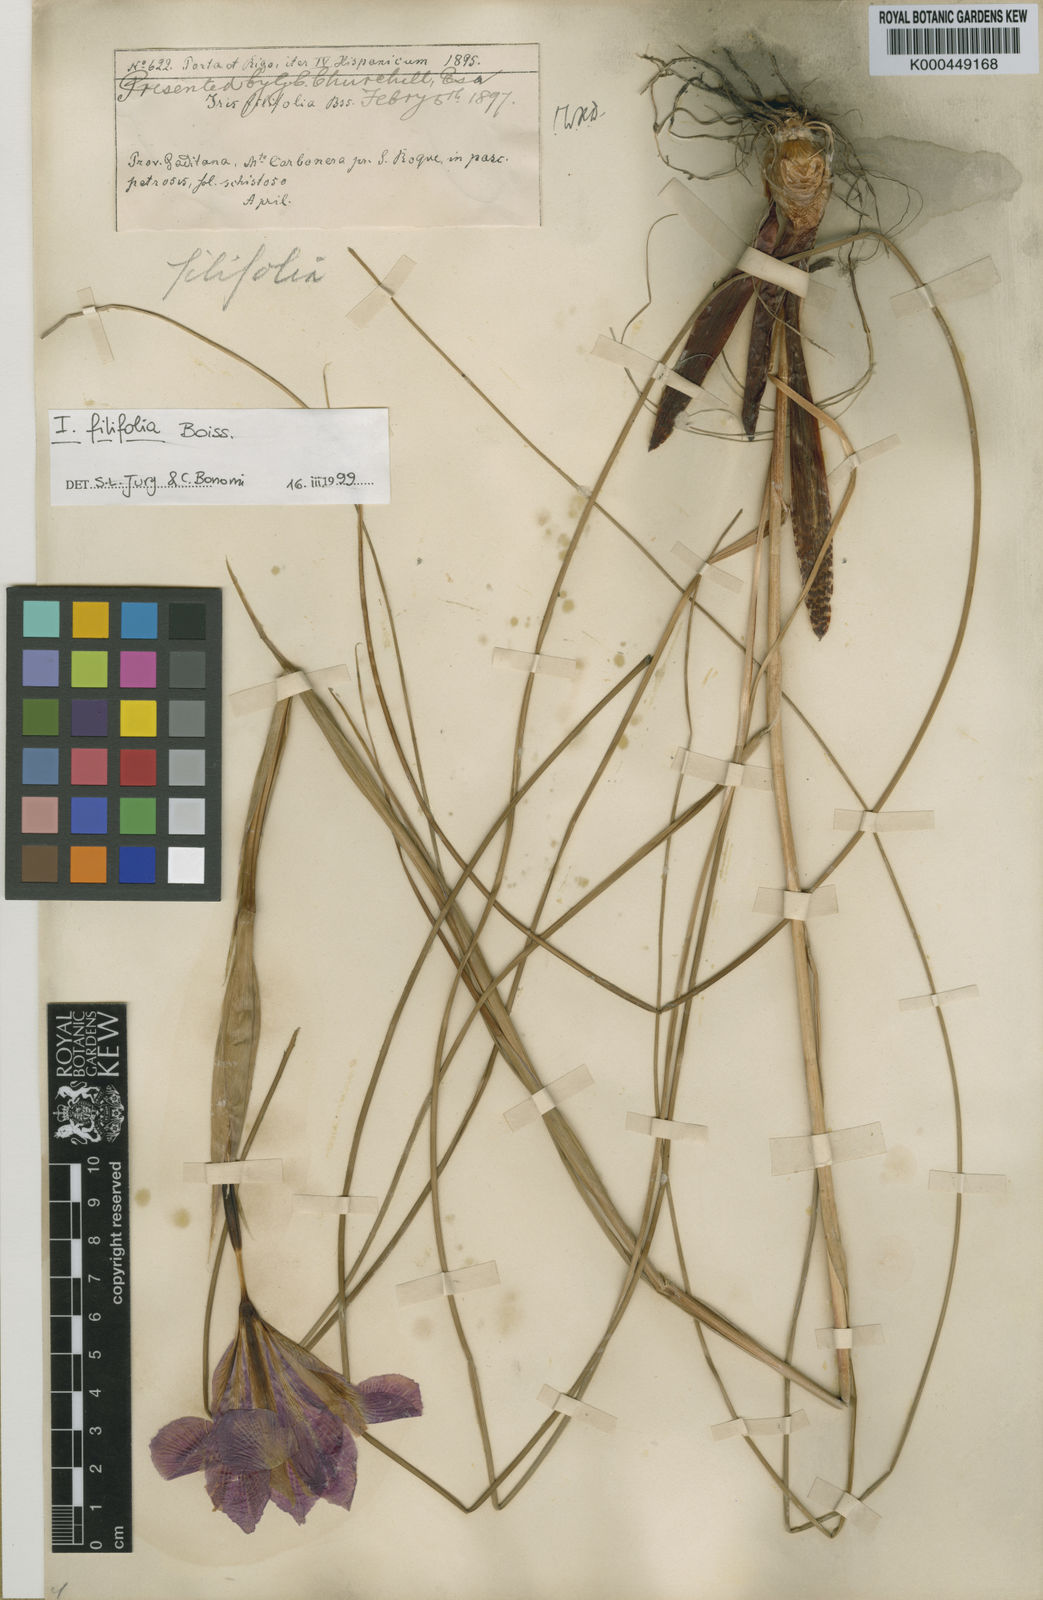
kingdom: Plantae
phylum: Tracheophyta
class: Liliopsida
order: Asparagales
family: Iridaceae
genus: Iris
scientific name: Iris filifolia
